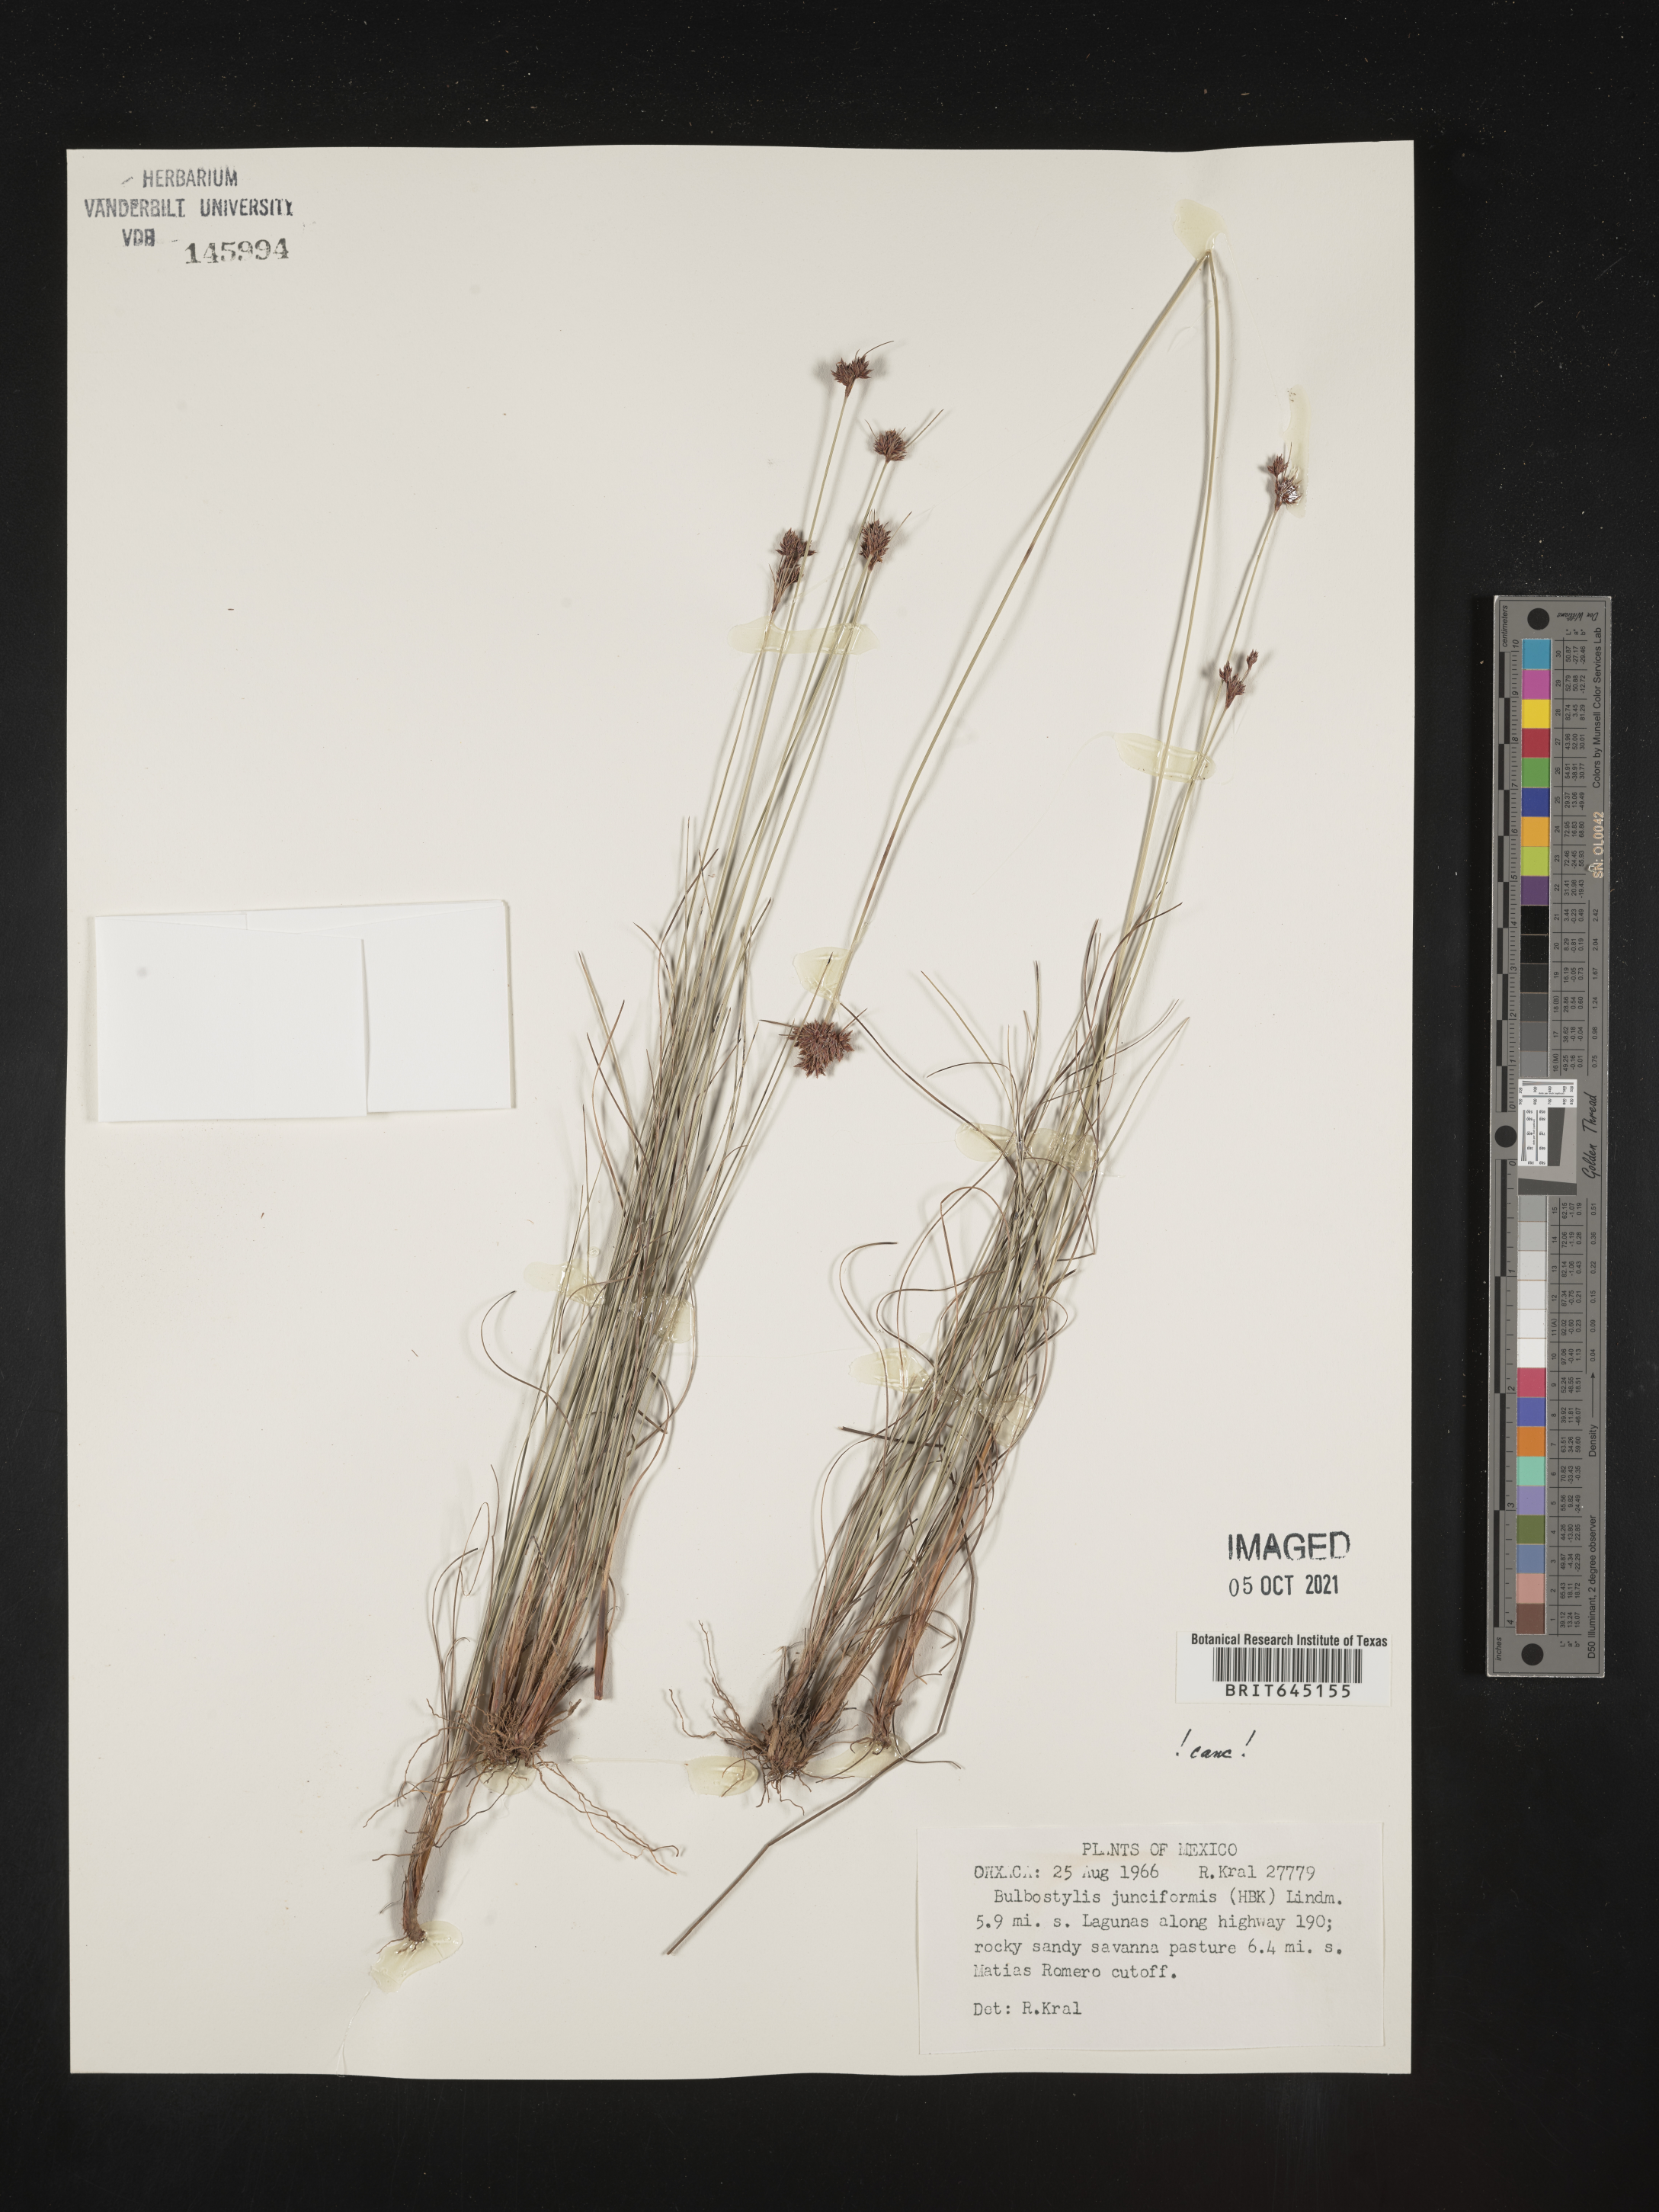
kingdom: Plantae
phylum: Tracheophyta
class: Liliopsida
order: Poales
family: Cyperaceae
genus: Bulbostylis
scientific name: Bulbostylis junciformis
